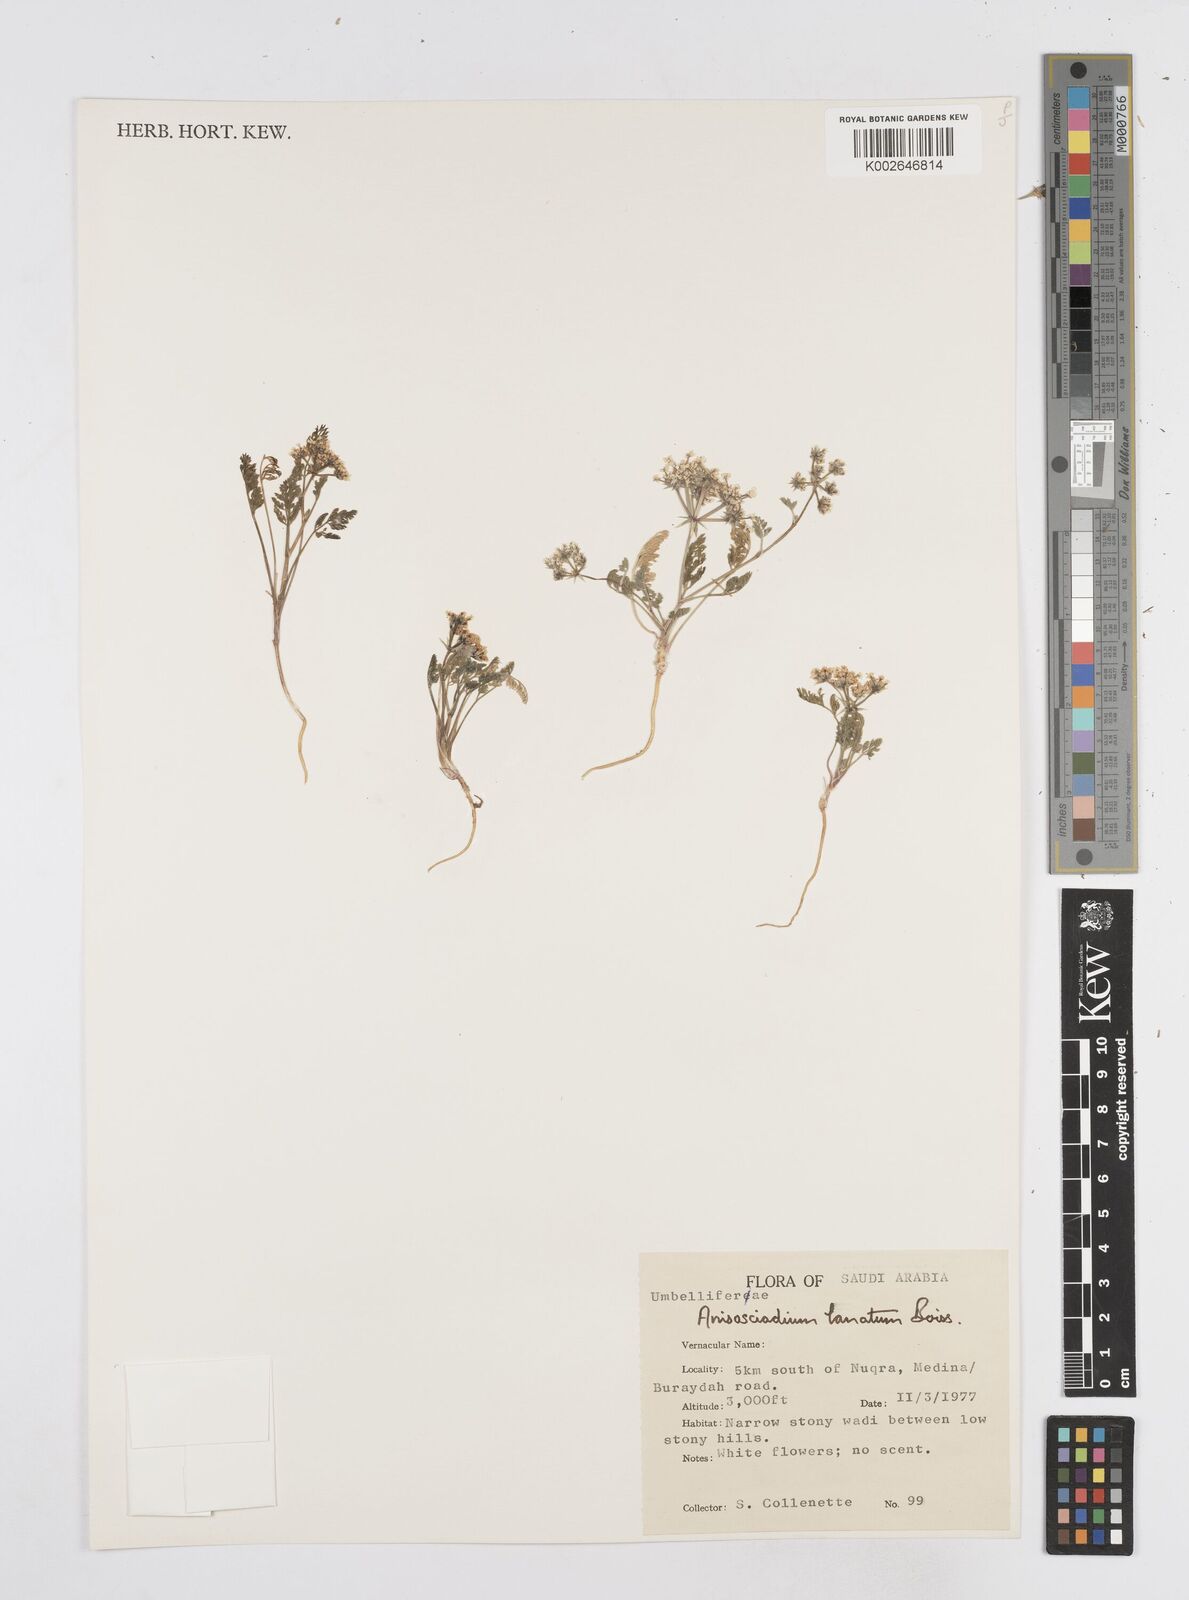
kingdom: Plantae
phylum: Tracheophyta
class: Magnoliopsida
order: Apiales
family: Apiaceae
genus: Anisosciadium
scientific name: Anisosciadium lanatum
